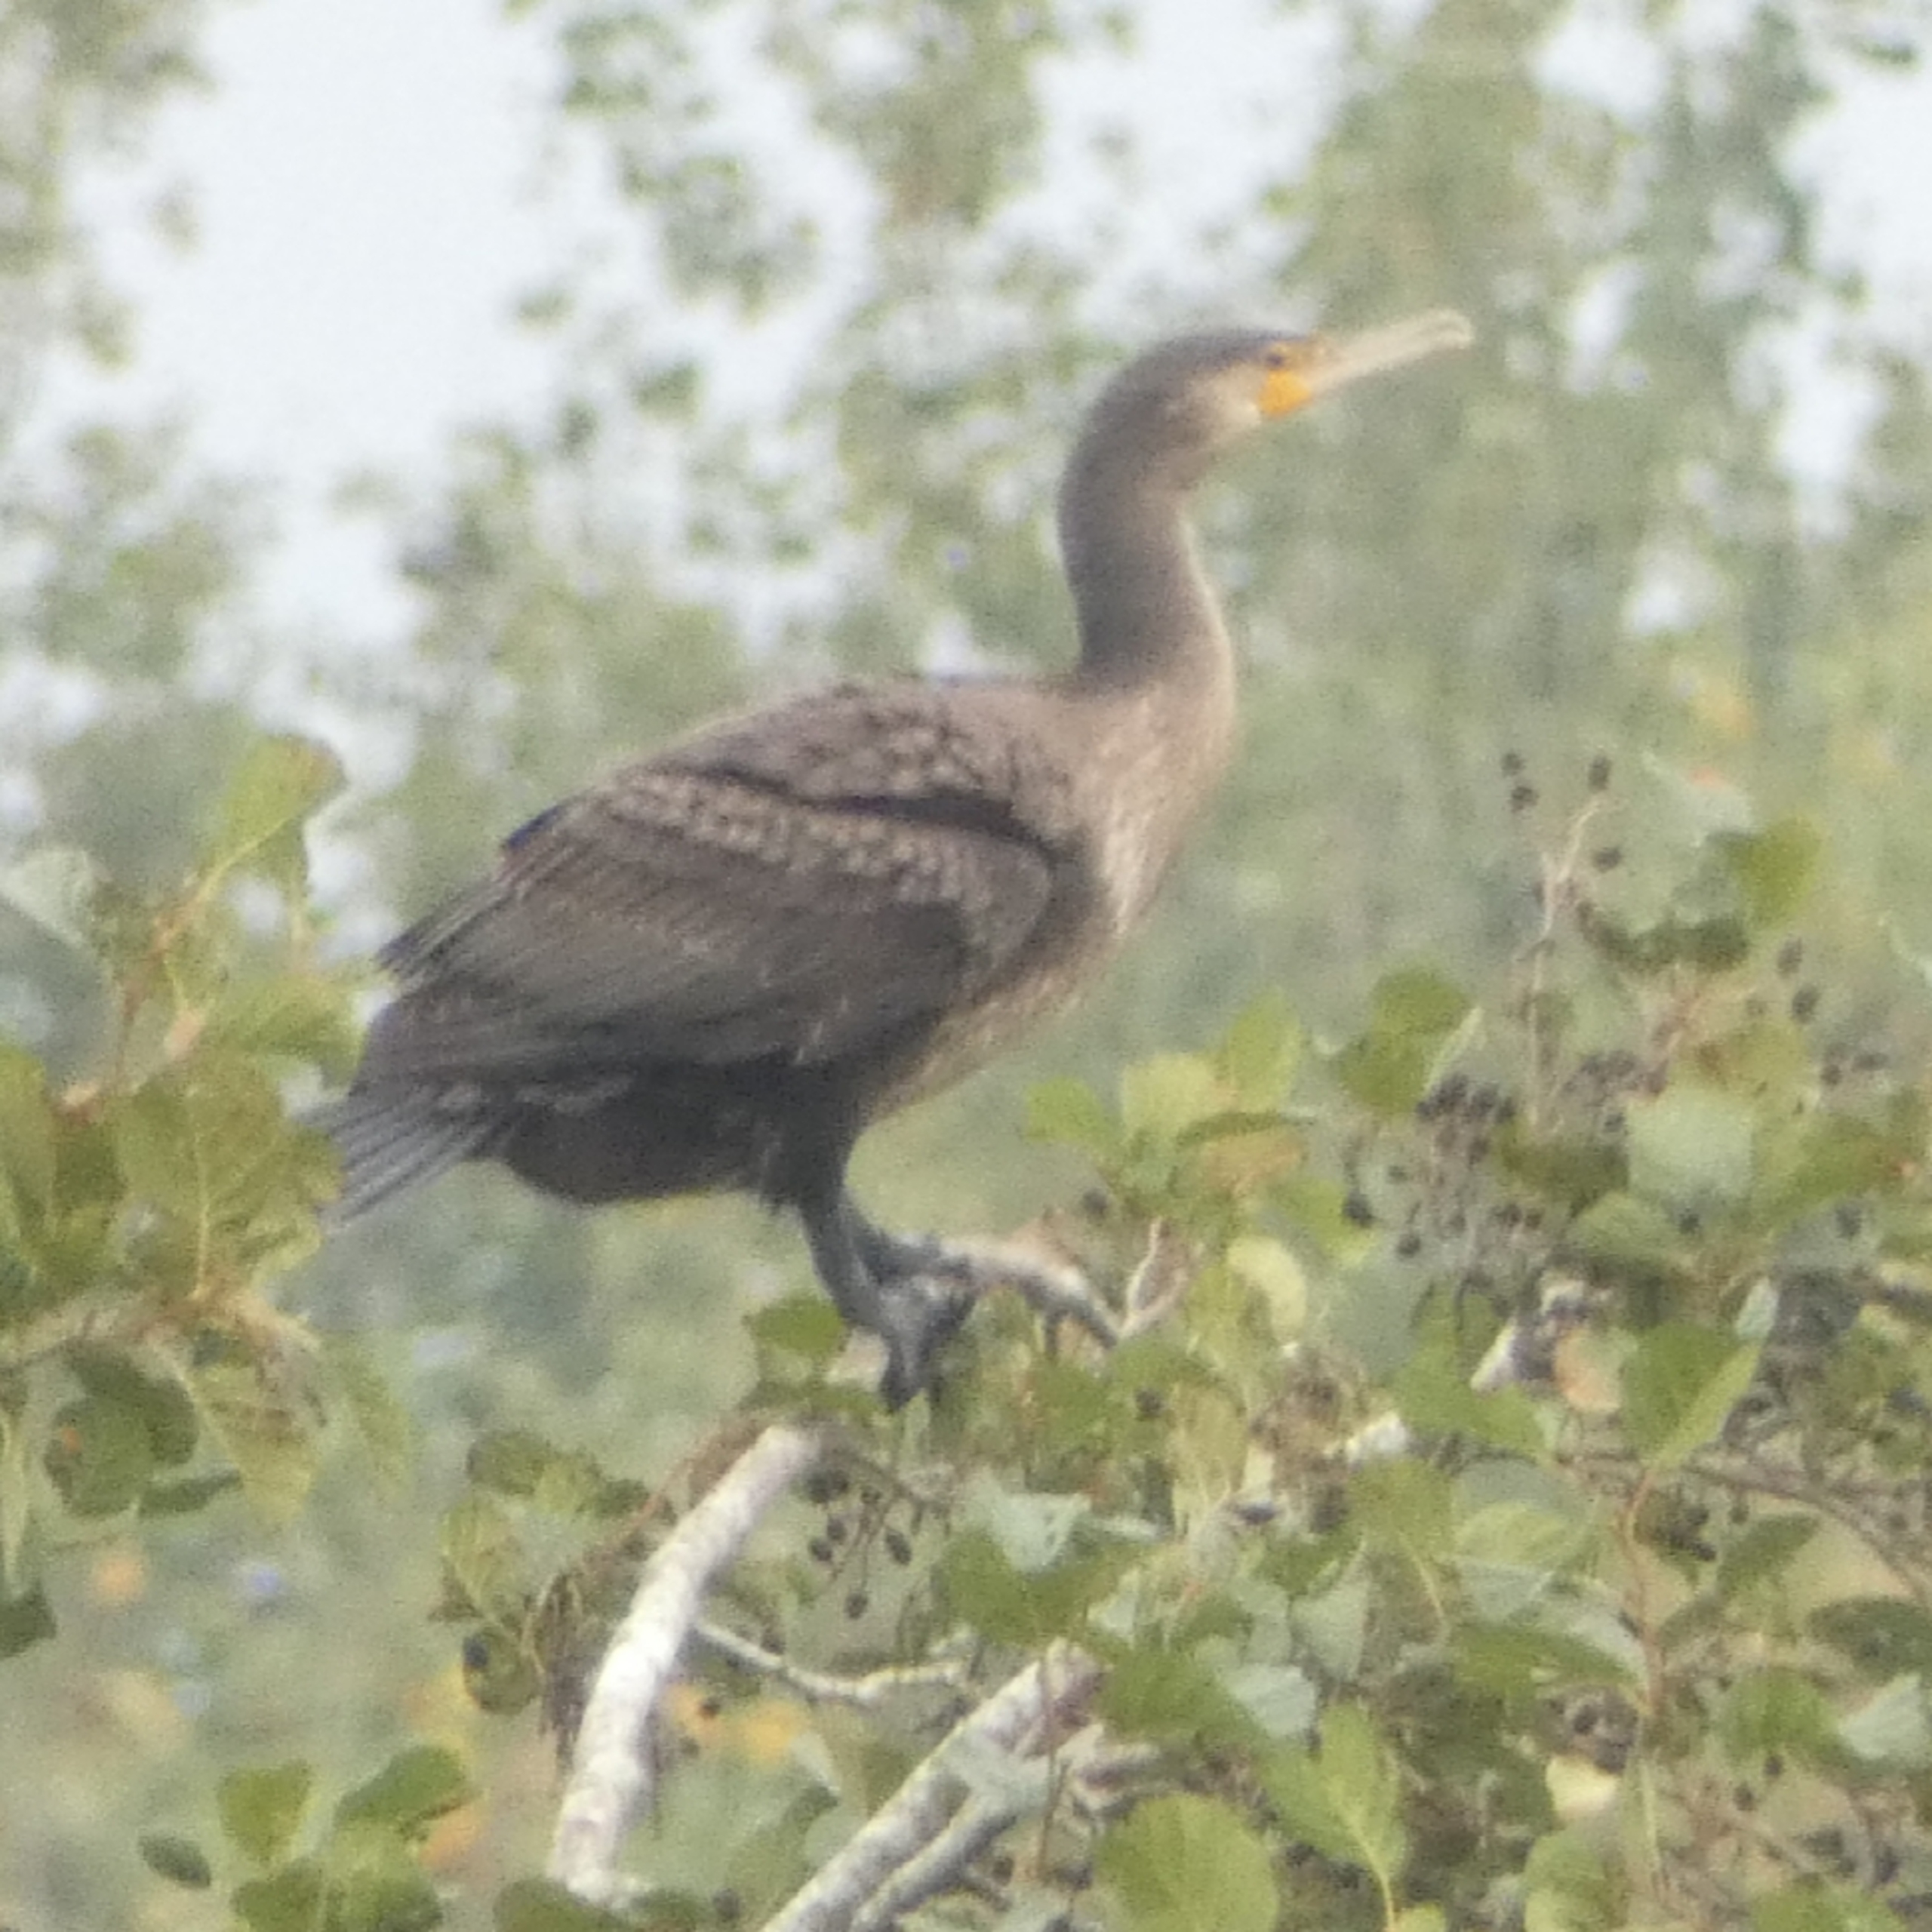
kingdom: Animalia
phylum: Chordata
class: Aves
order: Suliformes
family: Phalacrocoracidae
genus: Phalacrocorax
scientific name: Phalacrocorax carbo
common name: Skarv
